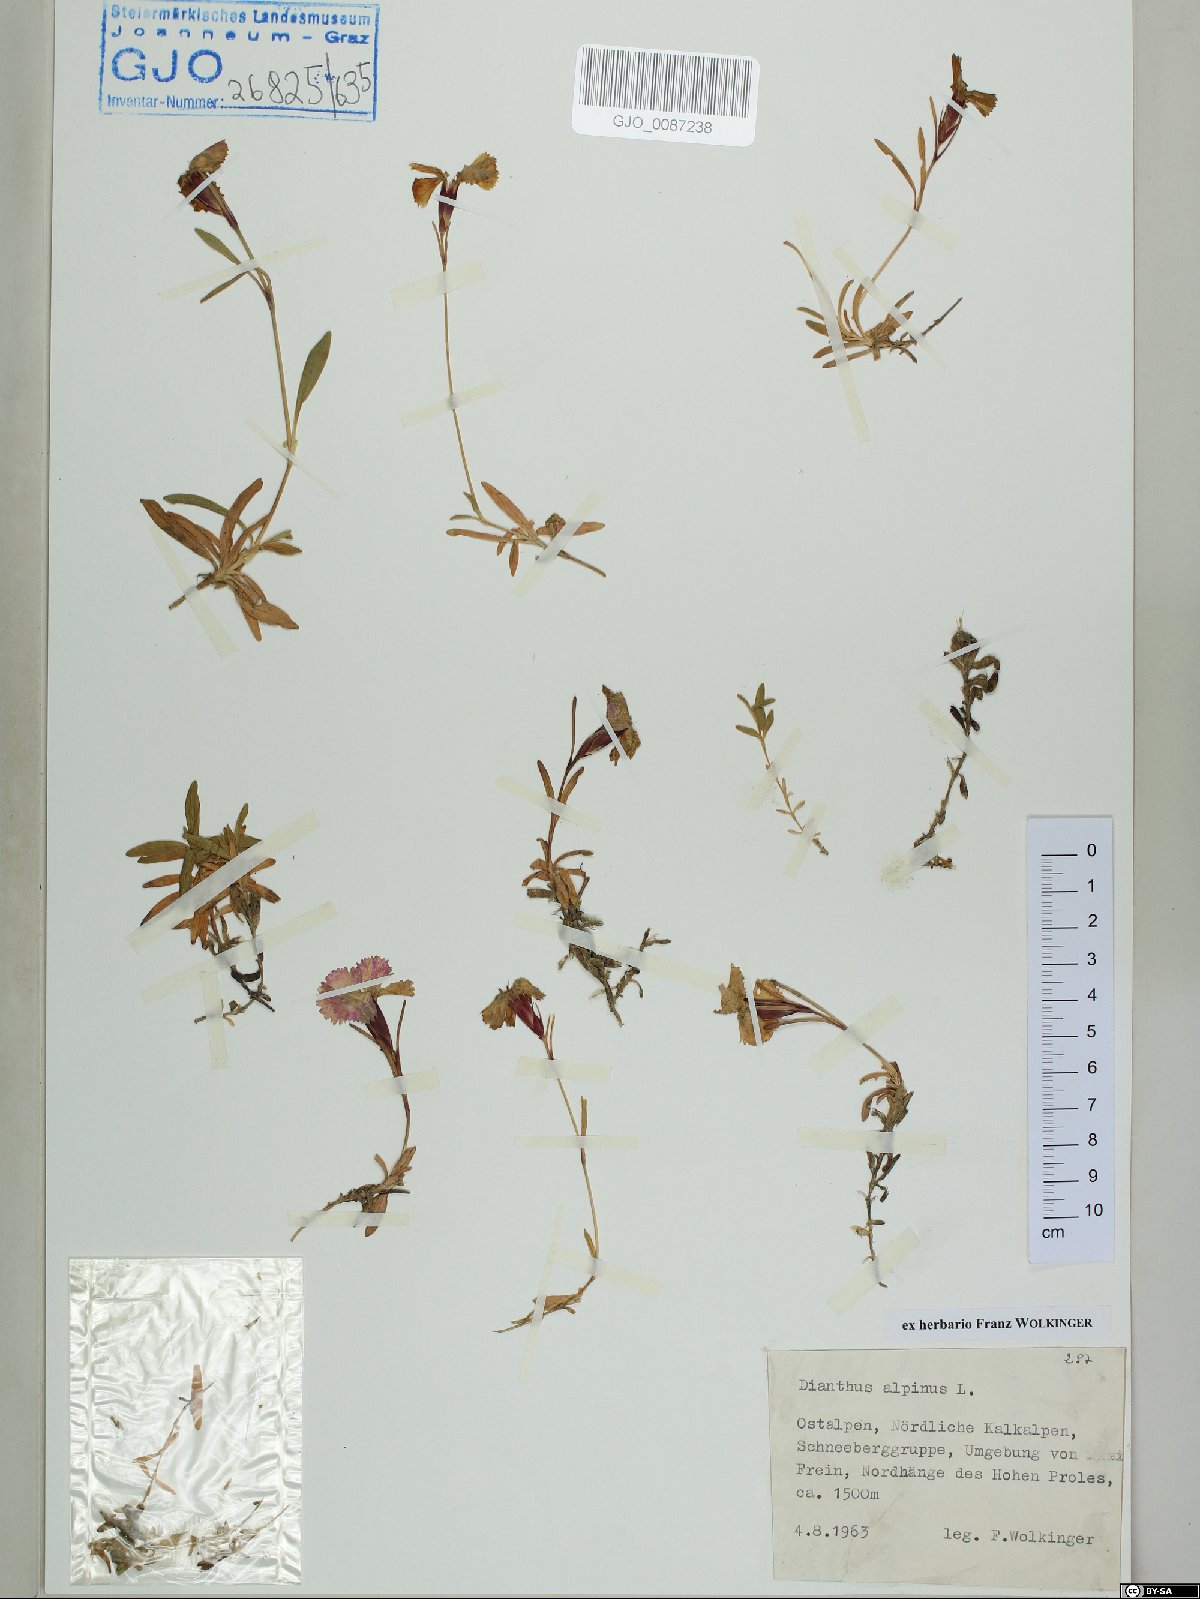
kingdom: Plantae
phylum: Tracheophyta
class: Magnoliopsida
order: Caryophyllales
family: Caryophyllaceae
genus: Dianthus
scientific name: Dianthus alpinus
